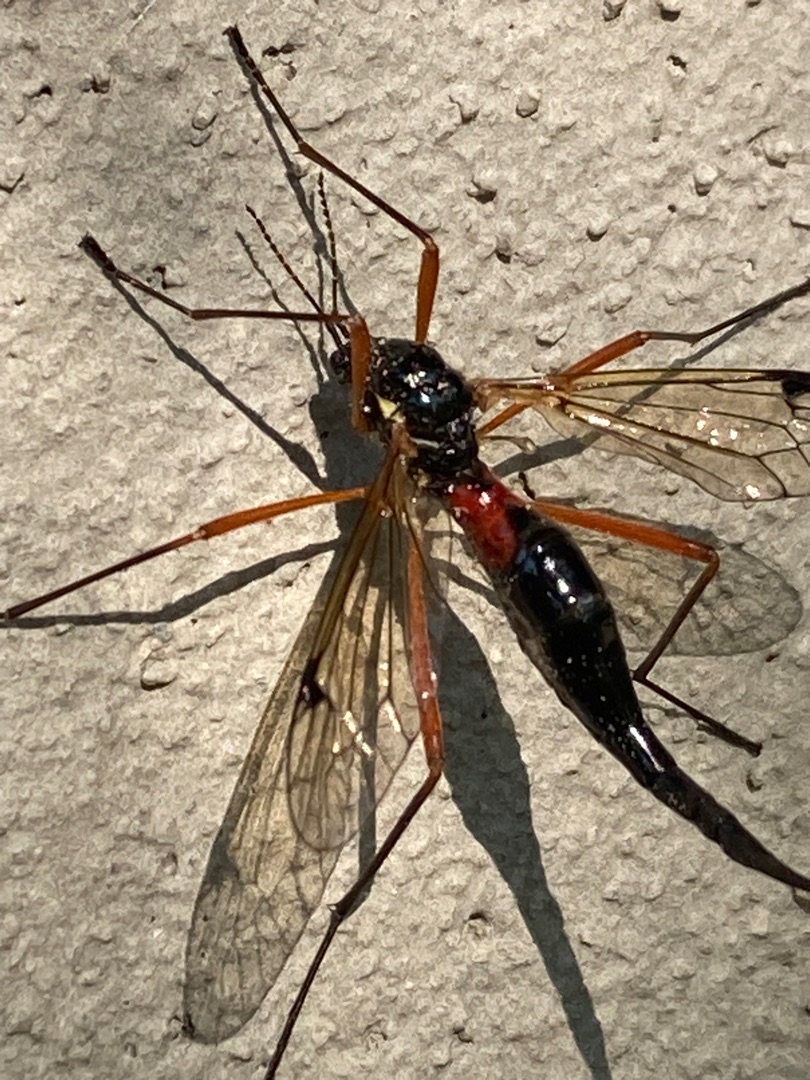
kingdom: Animalia
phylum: Arthropoda
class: Insecta
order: Diptera
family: Tipulidae
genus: Tanyptera
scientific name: Tanyptera atrata
